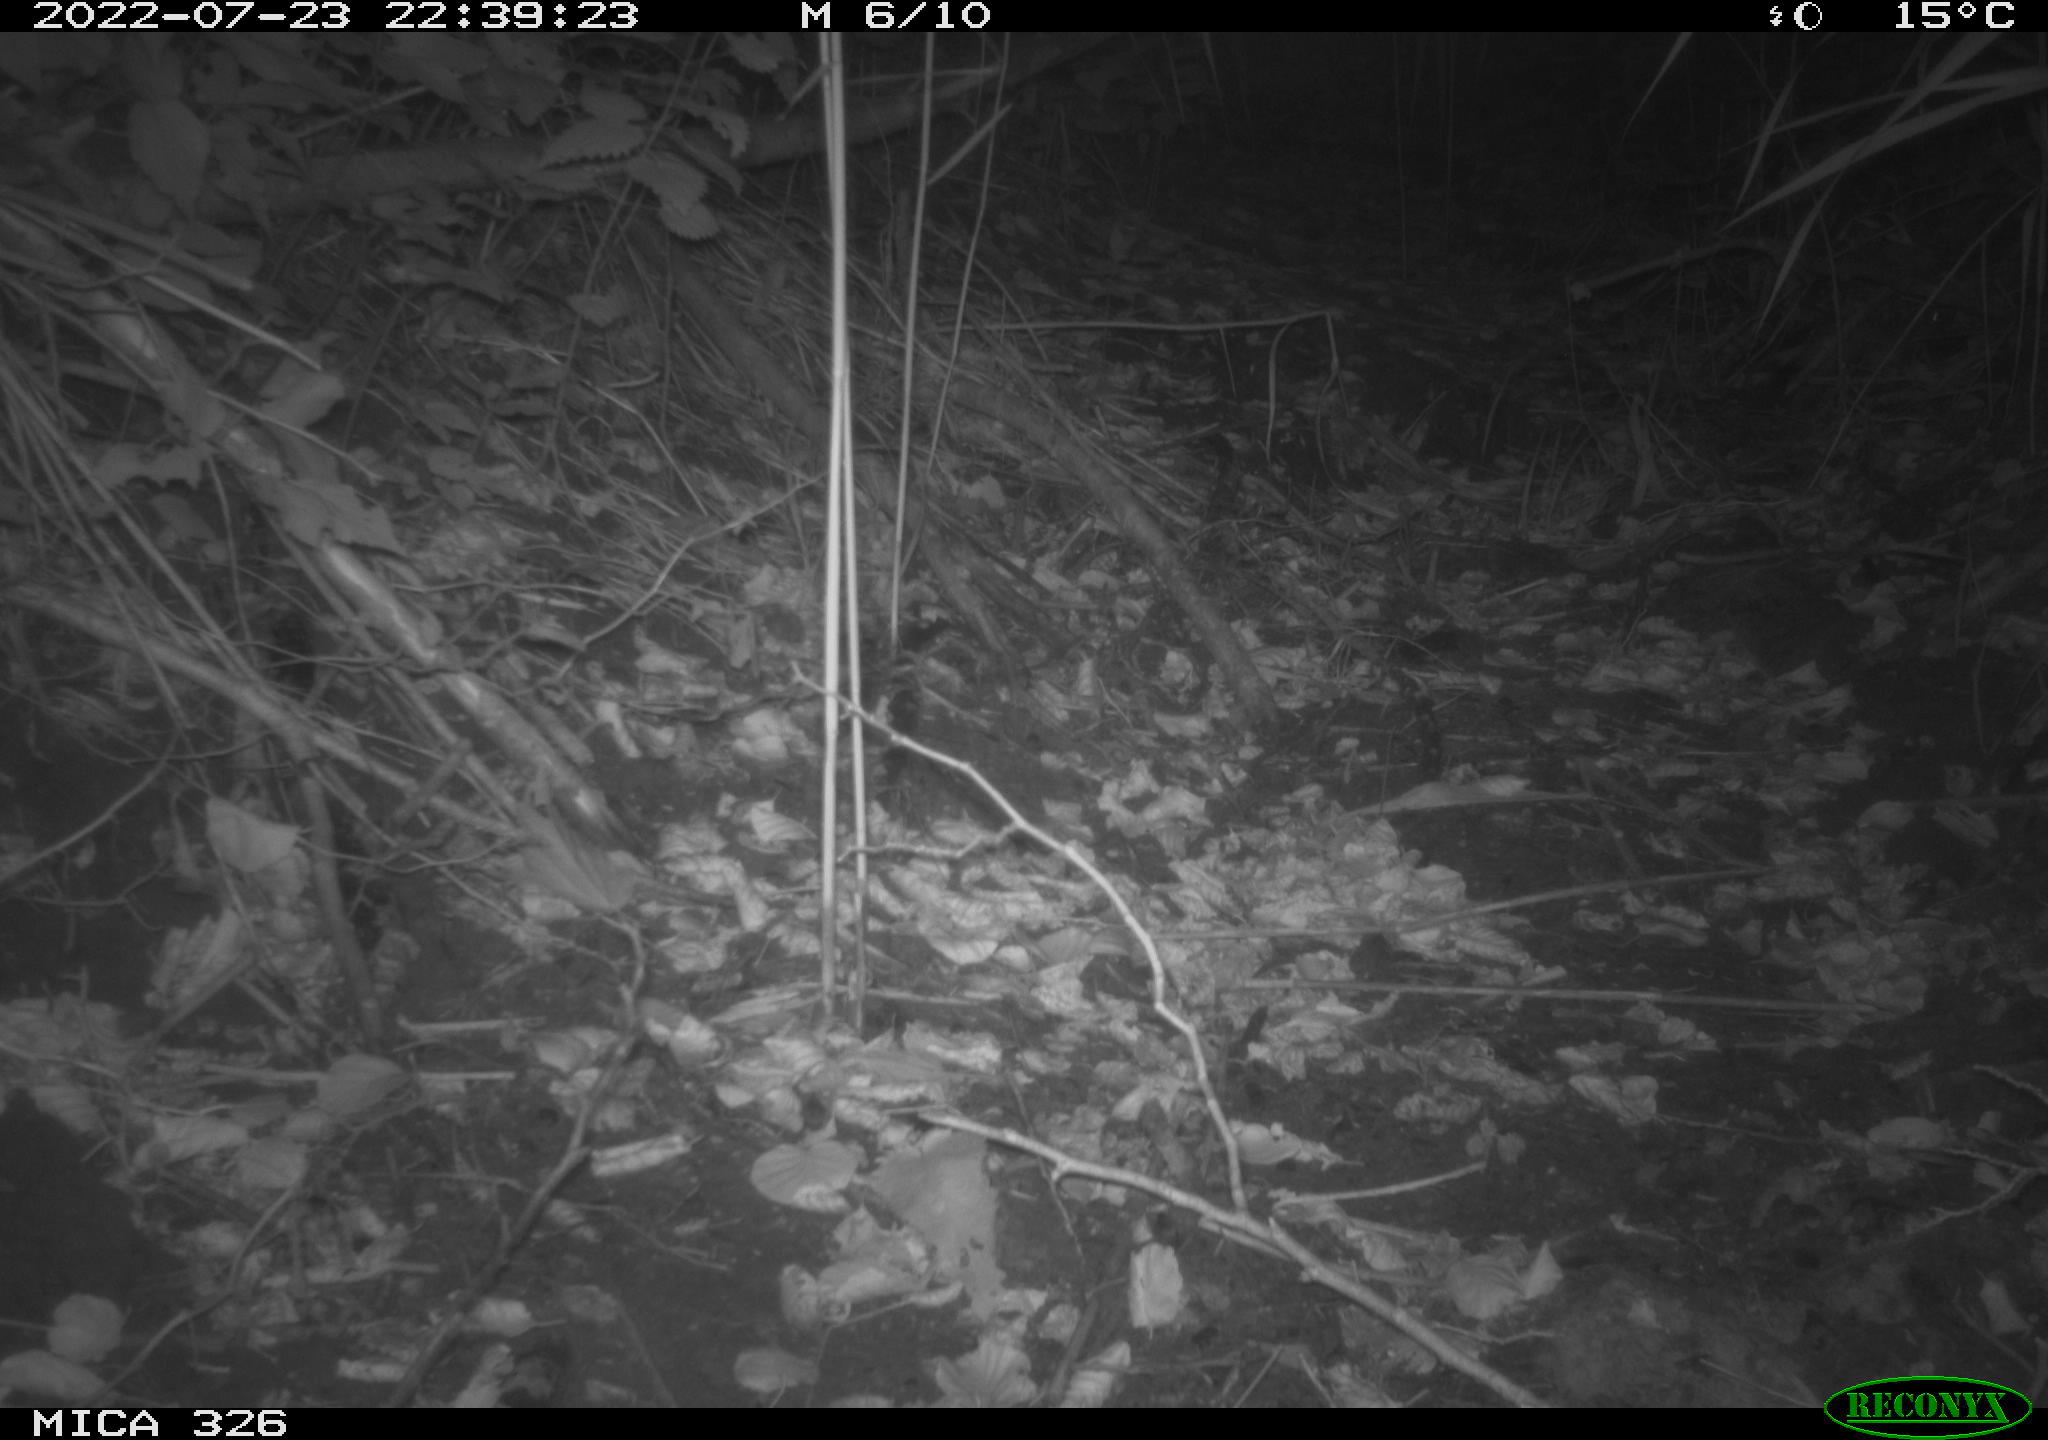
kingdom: Animalia
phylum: Chordata
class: Mammalia
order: Carnivora
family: Mustelidae
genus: Mustela
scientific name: Mustela erminea
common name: Stoat
